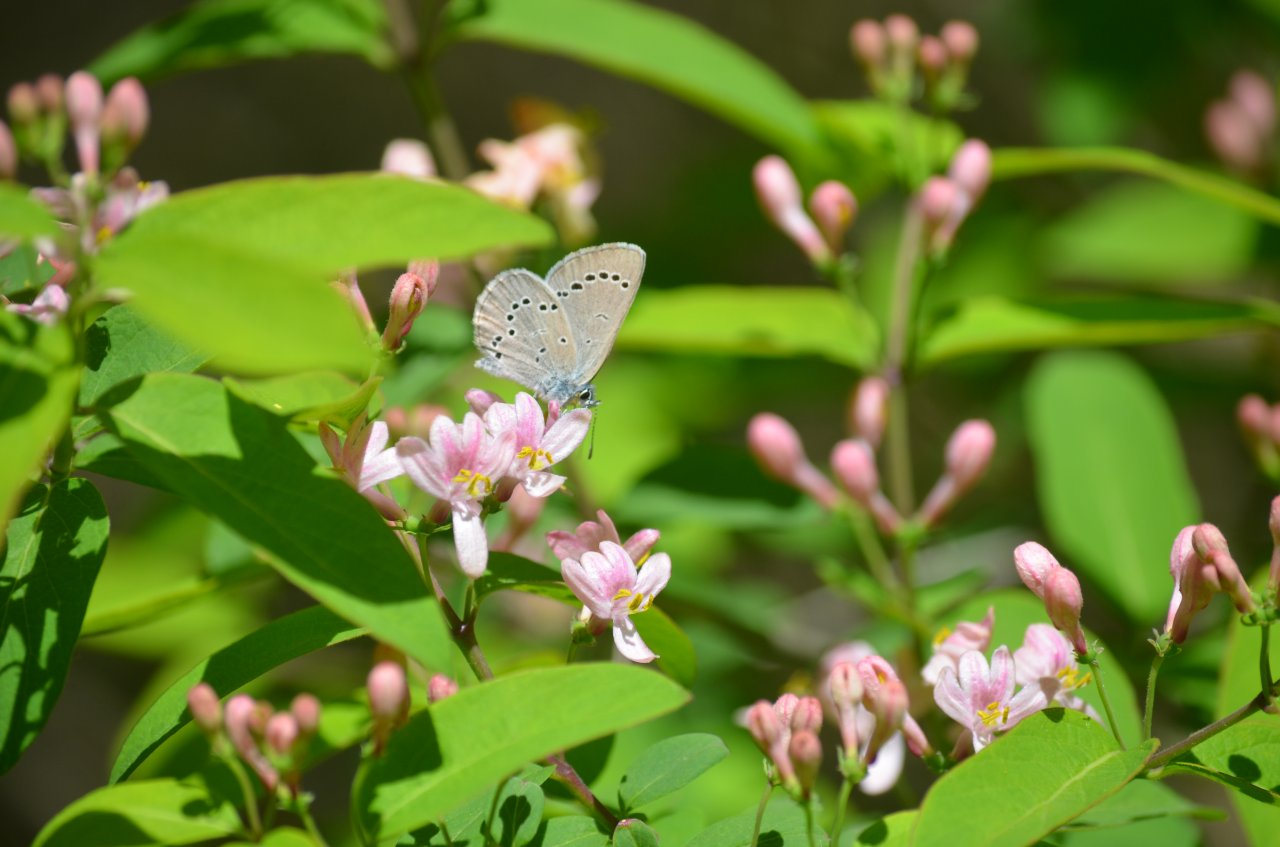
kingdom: Animalia
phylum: Arthropoda
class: Insecta
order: Lepidoptera
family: Lycaenidae
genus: Glaucopsyche
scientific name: Glaucopsyche lygdamus
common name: Silvery Blue
